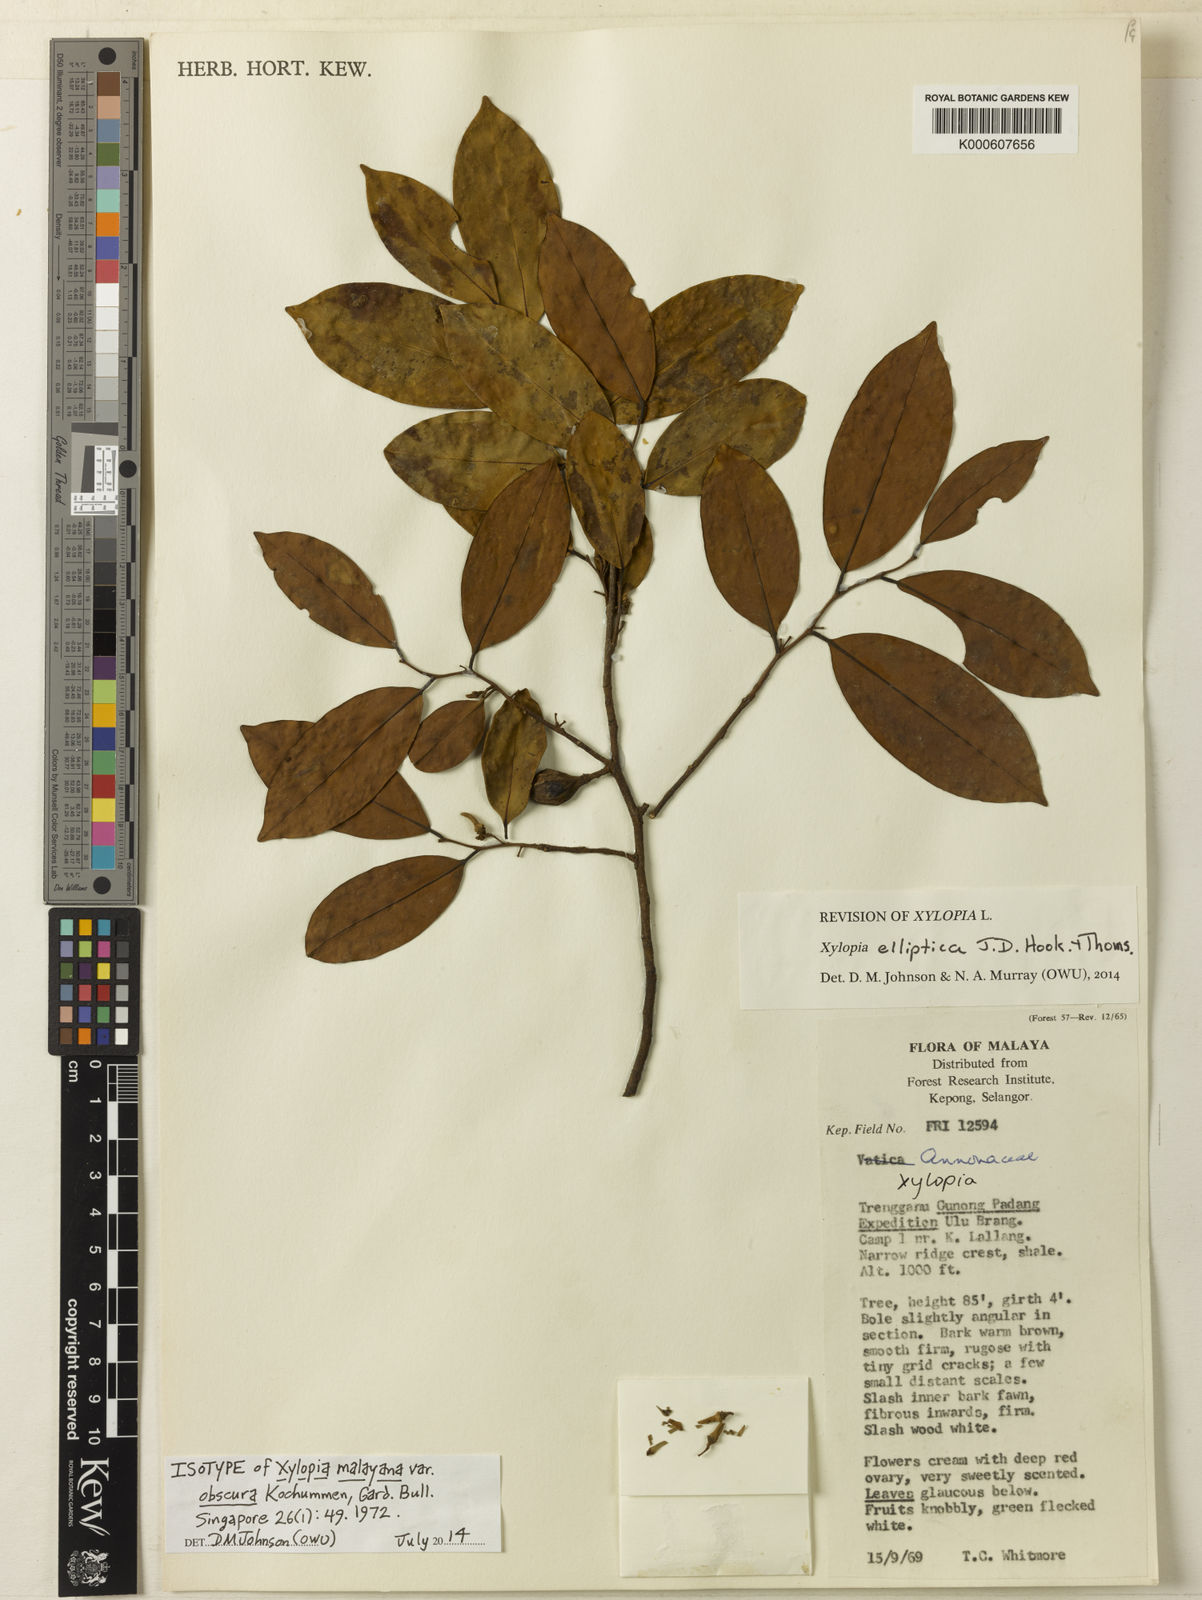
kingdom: Plantae
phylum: Tracheophyta
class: Magnoliopsida
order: Magnoliales
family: Annonaceae
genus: Xylopia
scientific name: Xylopia elliptica
